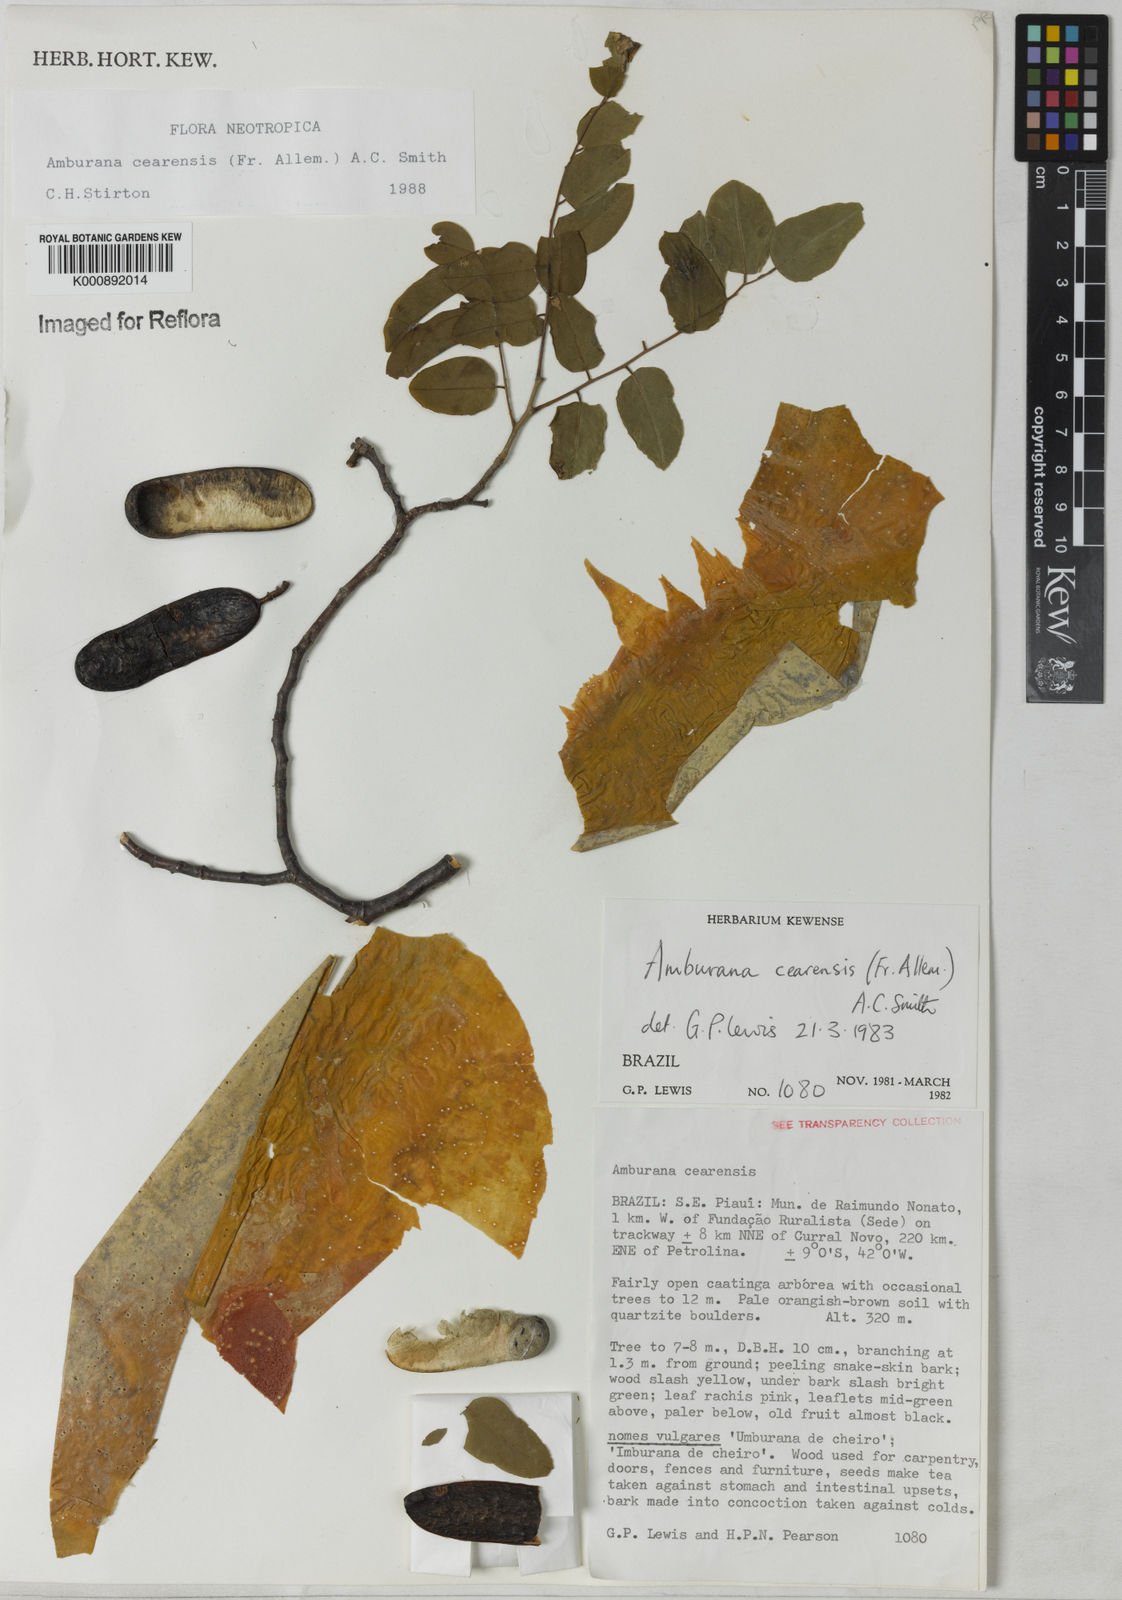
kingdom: Plantae
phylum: Tracheophyta
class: Magnoliopsida
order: Fabales
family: Fabaceae
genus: Amburana
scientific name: Amburana acreana
